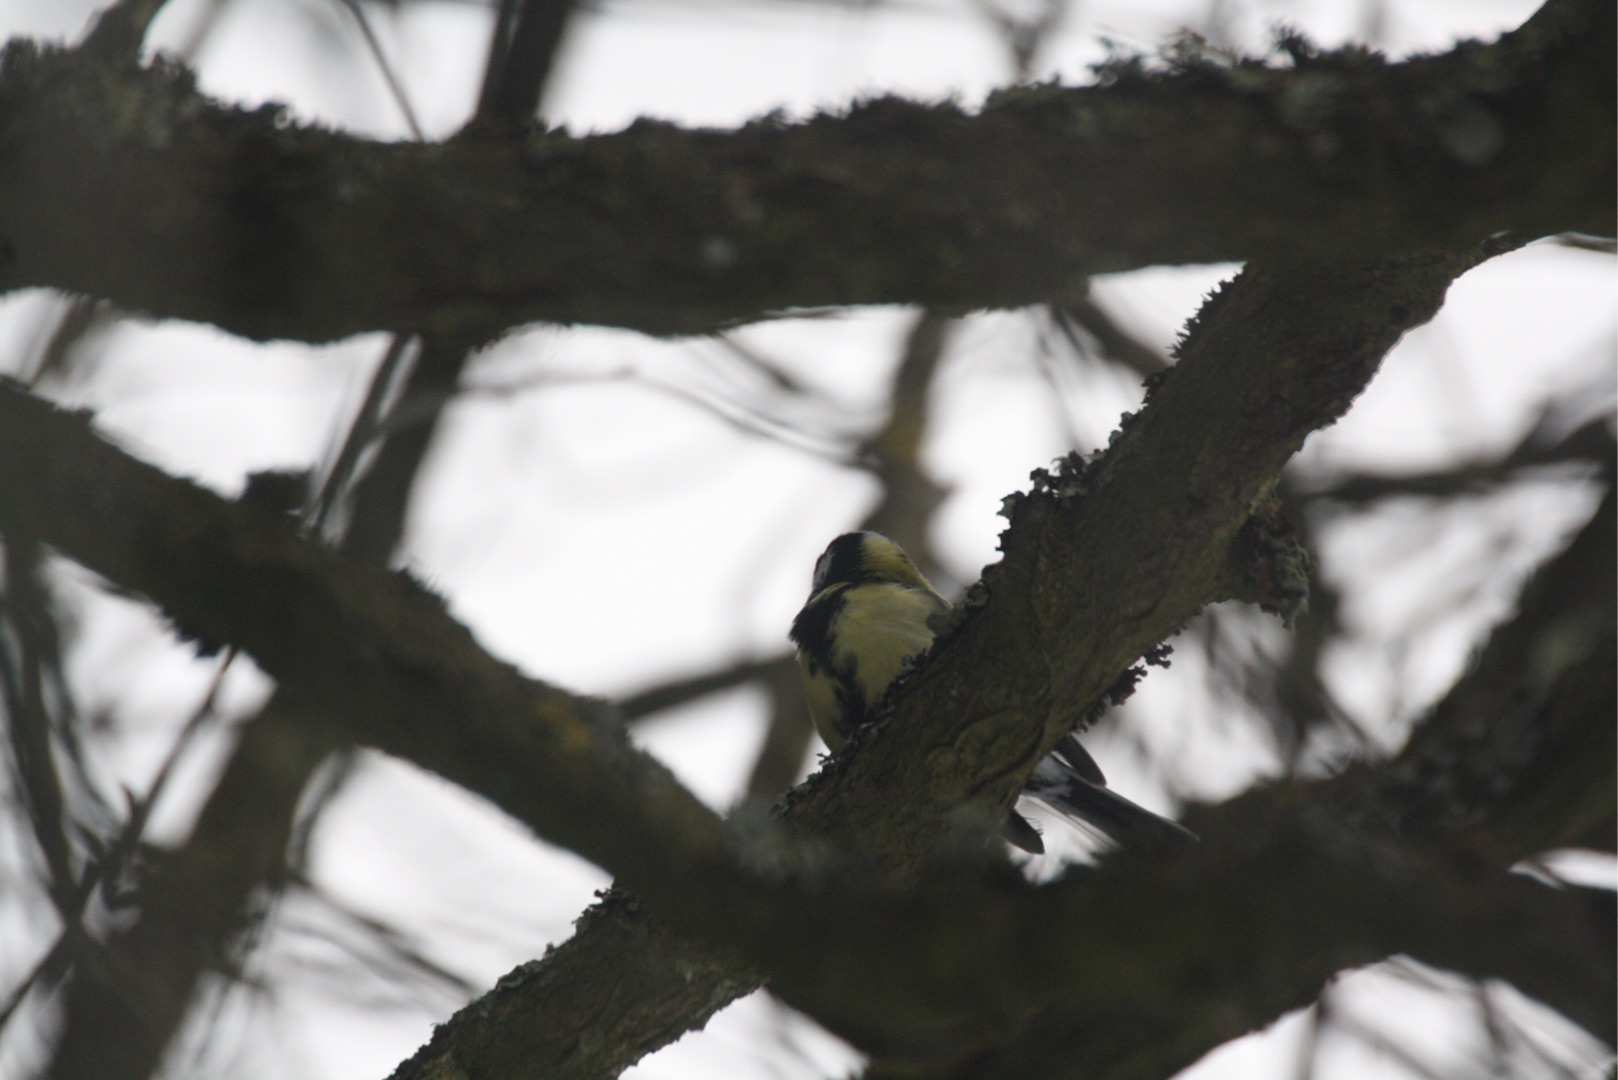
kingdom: Animalia
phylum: Chordata
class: Aves
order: Passeriformes
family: Paridae
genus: Parus
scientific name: Parus major
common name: Musvit
